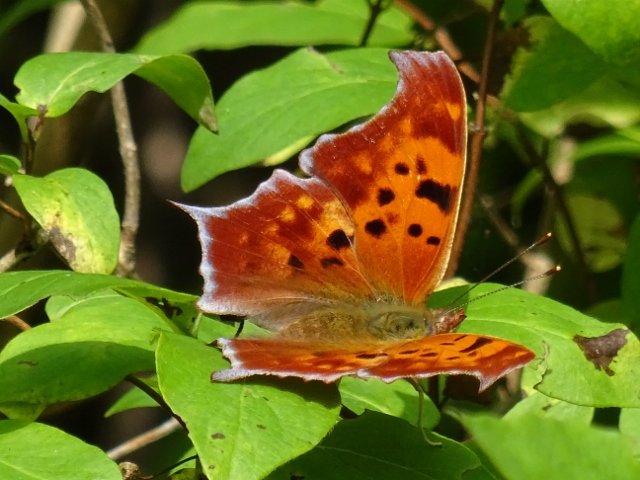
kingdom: Animalia
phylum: Arthropoda
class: Insecta
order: Lepidoptera
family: Nymphalidae
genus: Polygonia
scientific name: Polygonia interrogationis
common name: Question Mark
